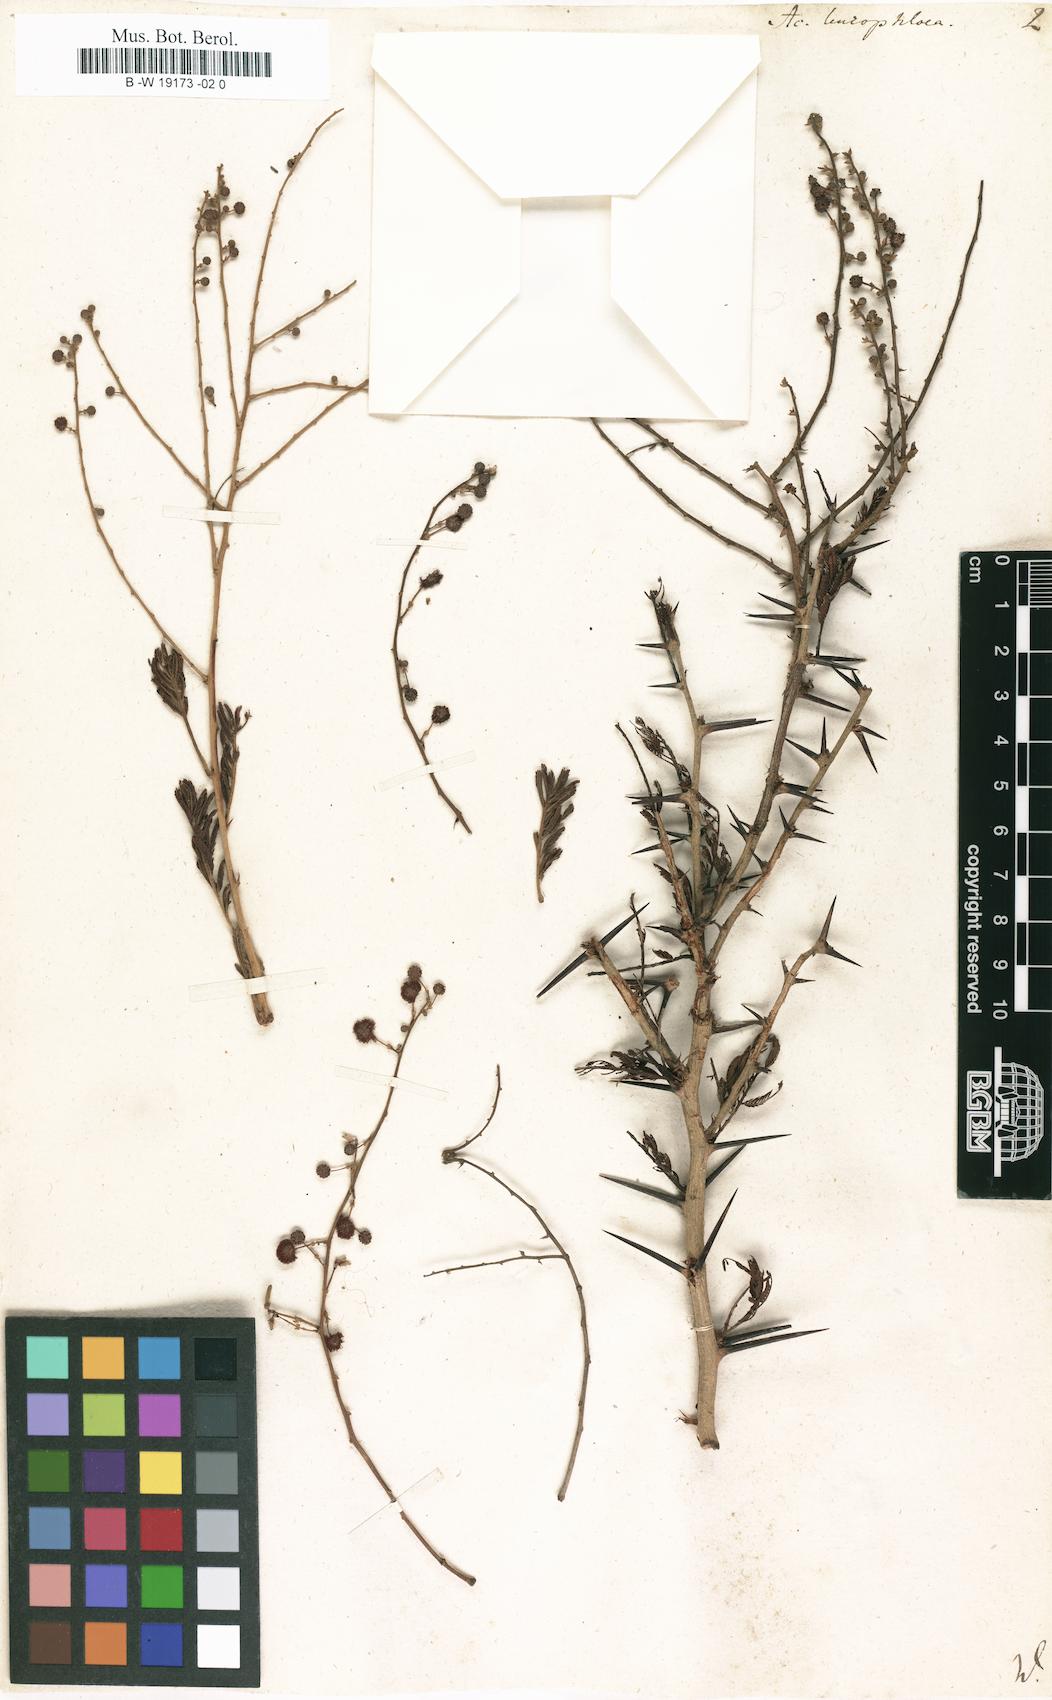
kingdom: Plantae
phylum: Tracheophyta
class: Magnoliopsida
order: Fabales
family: Fabaceae
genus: Vachellia
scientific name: Vachellia leucophloea
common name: Distiller's acacia
